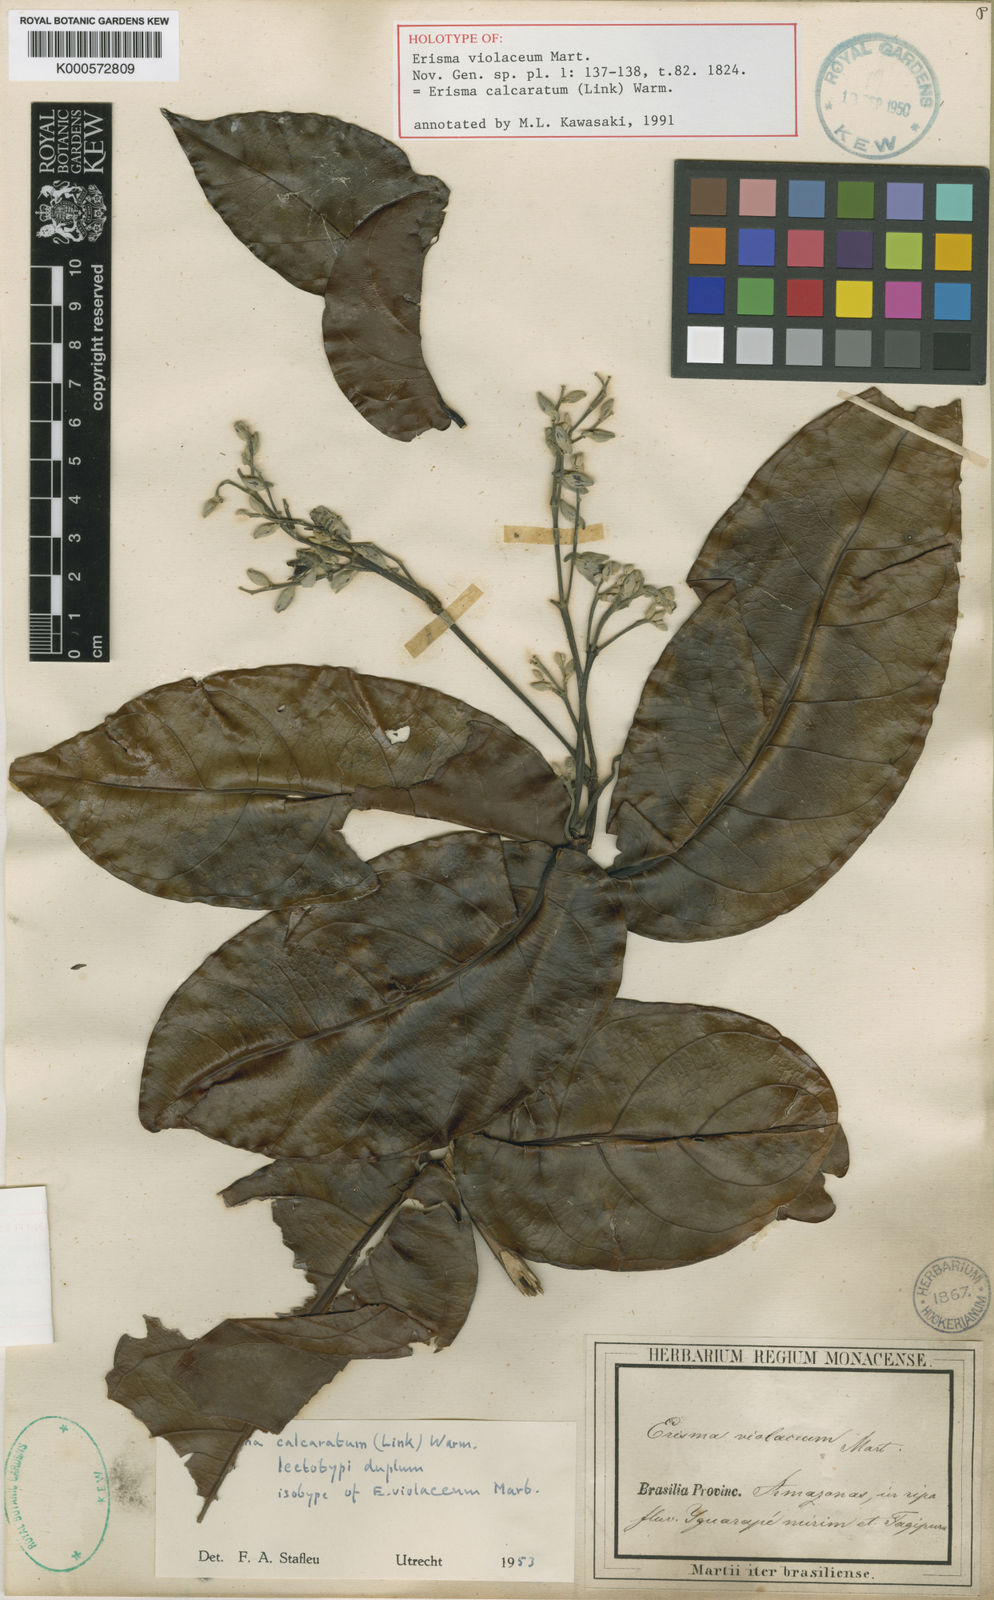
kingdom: Plantae
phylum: Tracheophyta
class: Magnoliopsida
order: Myrtales
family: Vochysiaceae
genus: Erisma
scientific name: Erisma calcaratum
